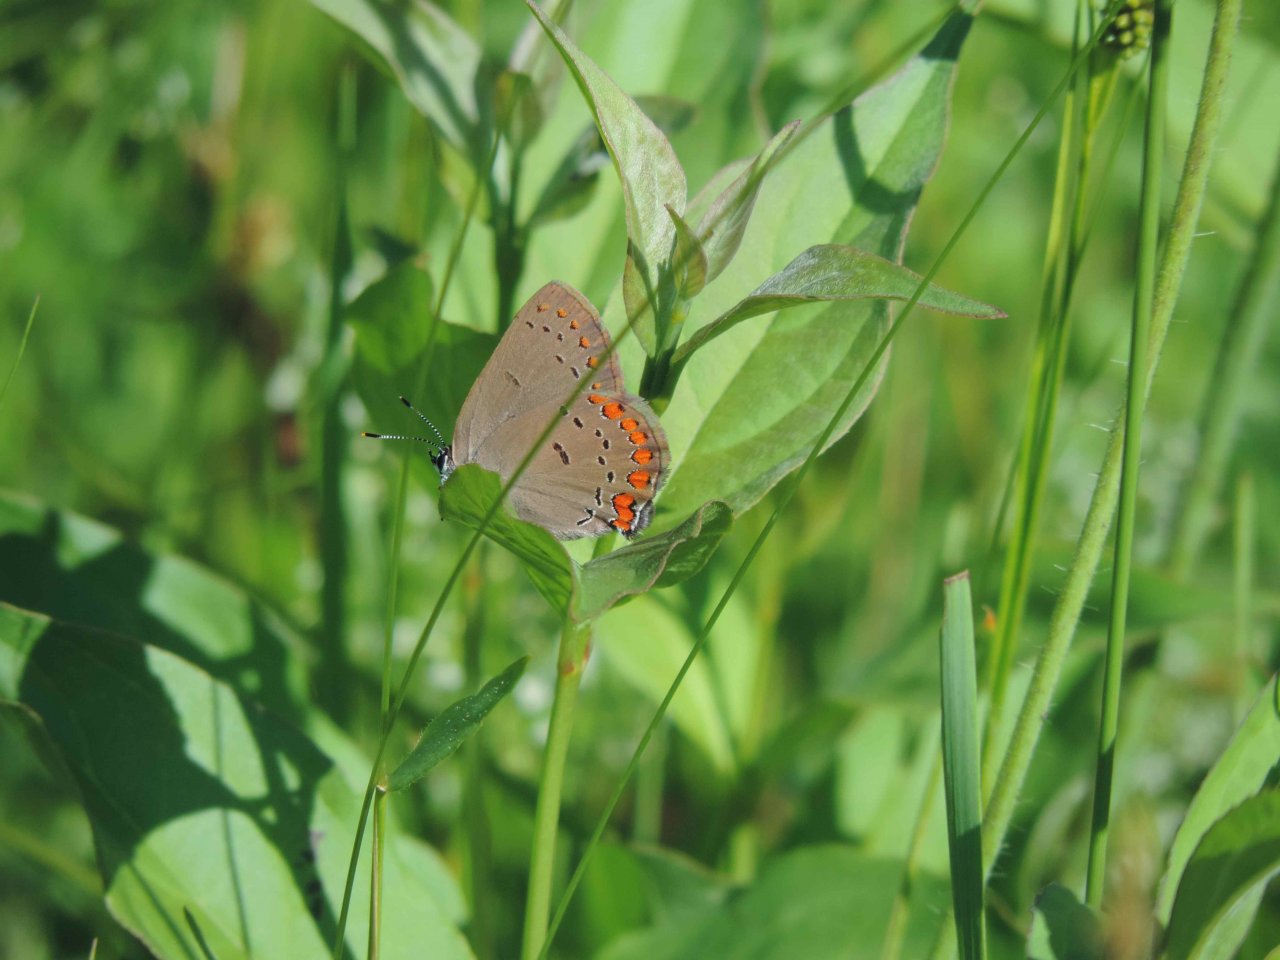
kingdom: Animalia
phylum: Arthropoda
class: Insecta
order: Lepidoptera
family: Lycaenidae
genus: Harkenclenus
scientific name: Harkenclenus titus
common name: Coral Hairstreak
